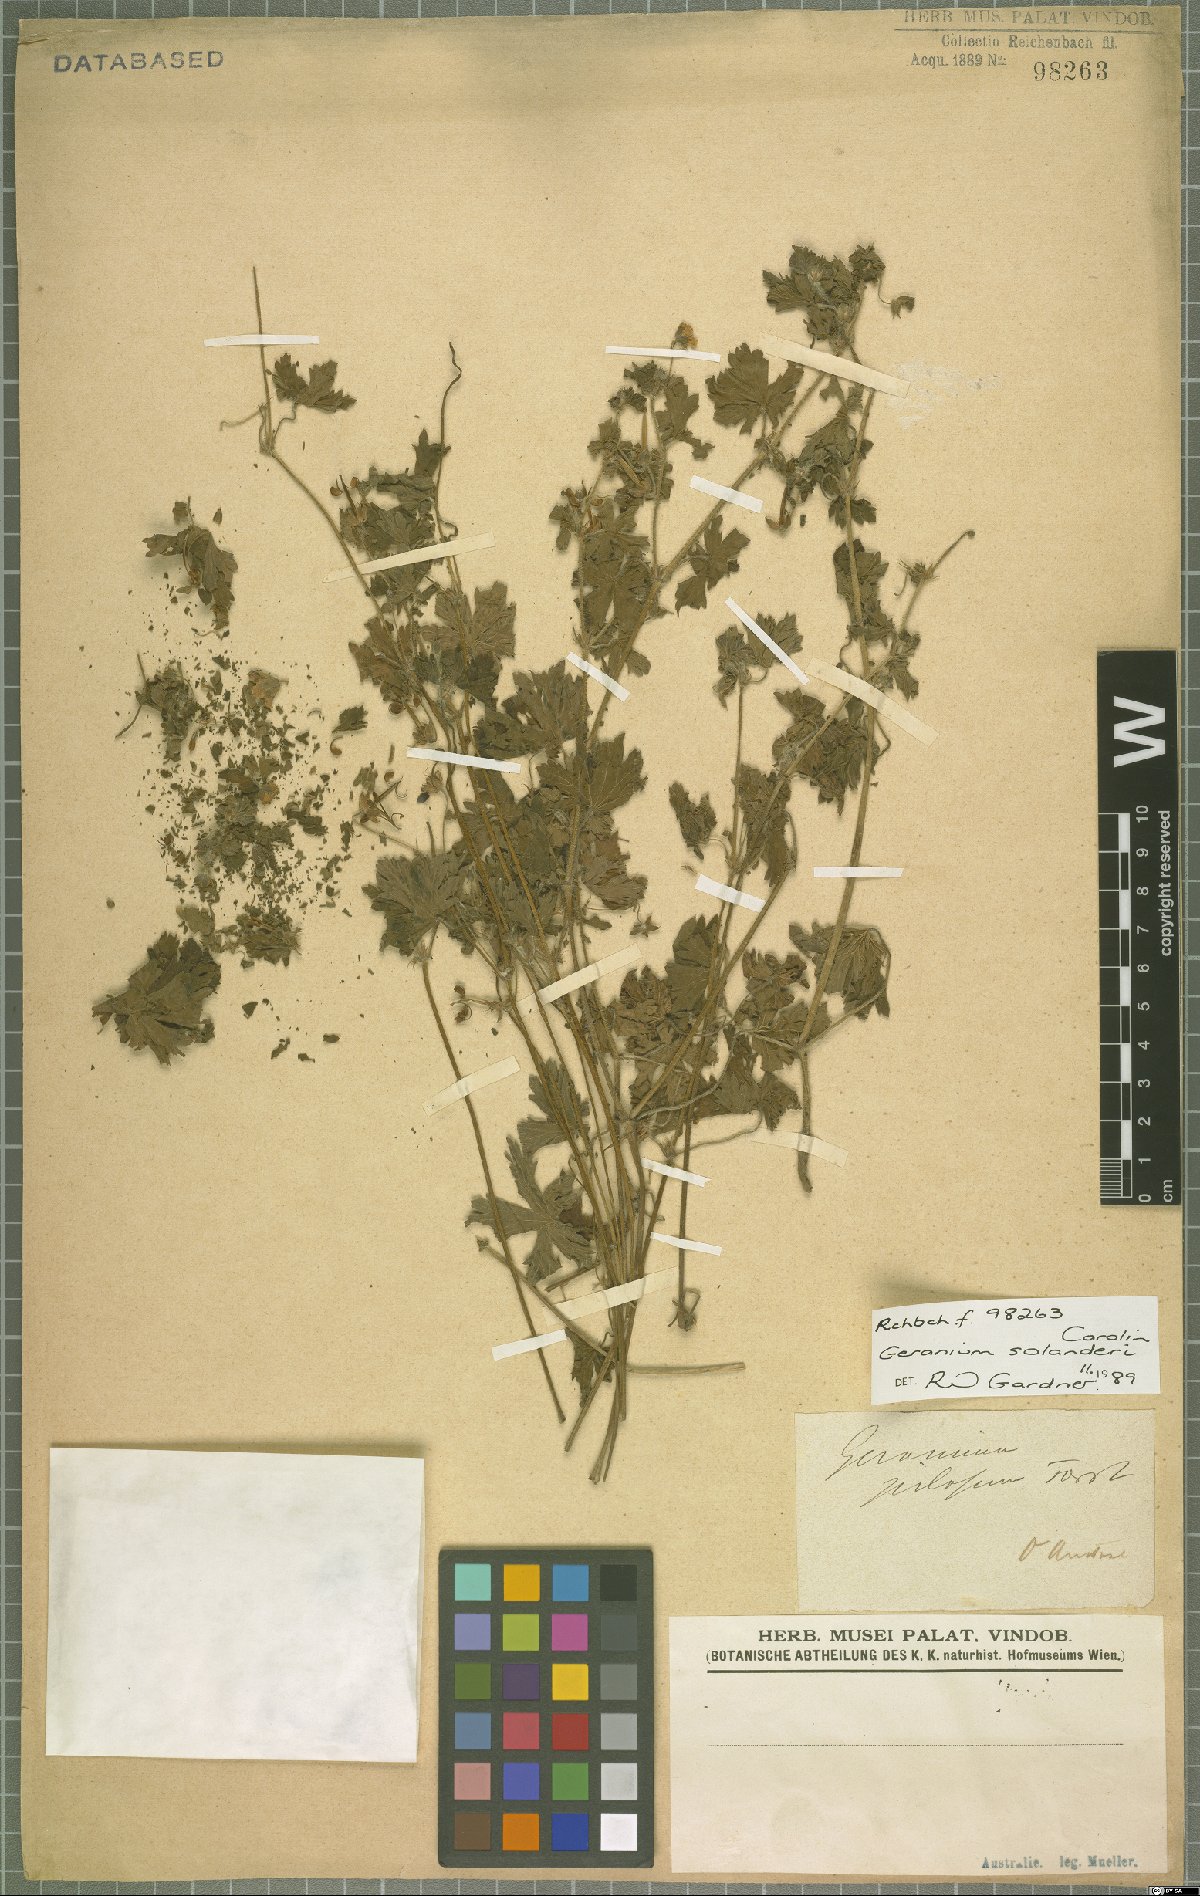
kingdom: Plantae
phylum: Tracheophyta
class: Magnoliopsida
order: Geraniales
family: Geraniaceae
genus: Geranium
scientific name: Geranium potentilloides
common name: Cinquefoil geranium
